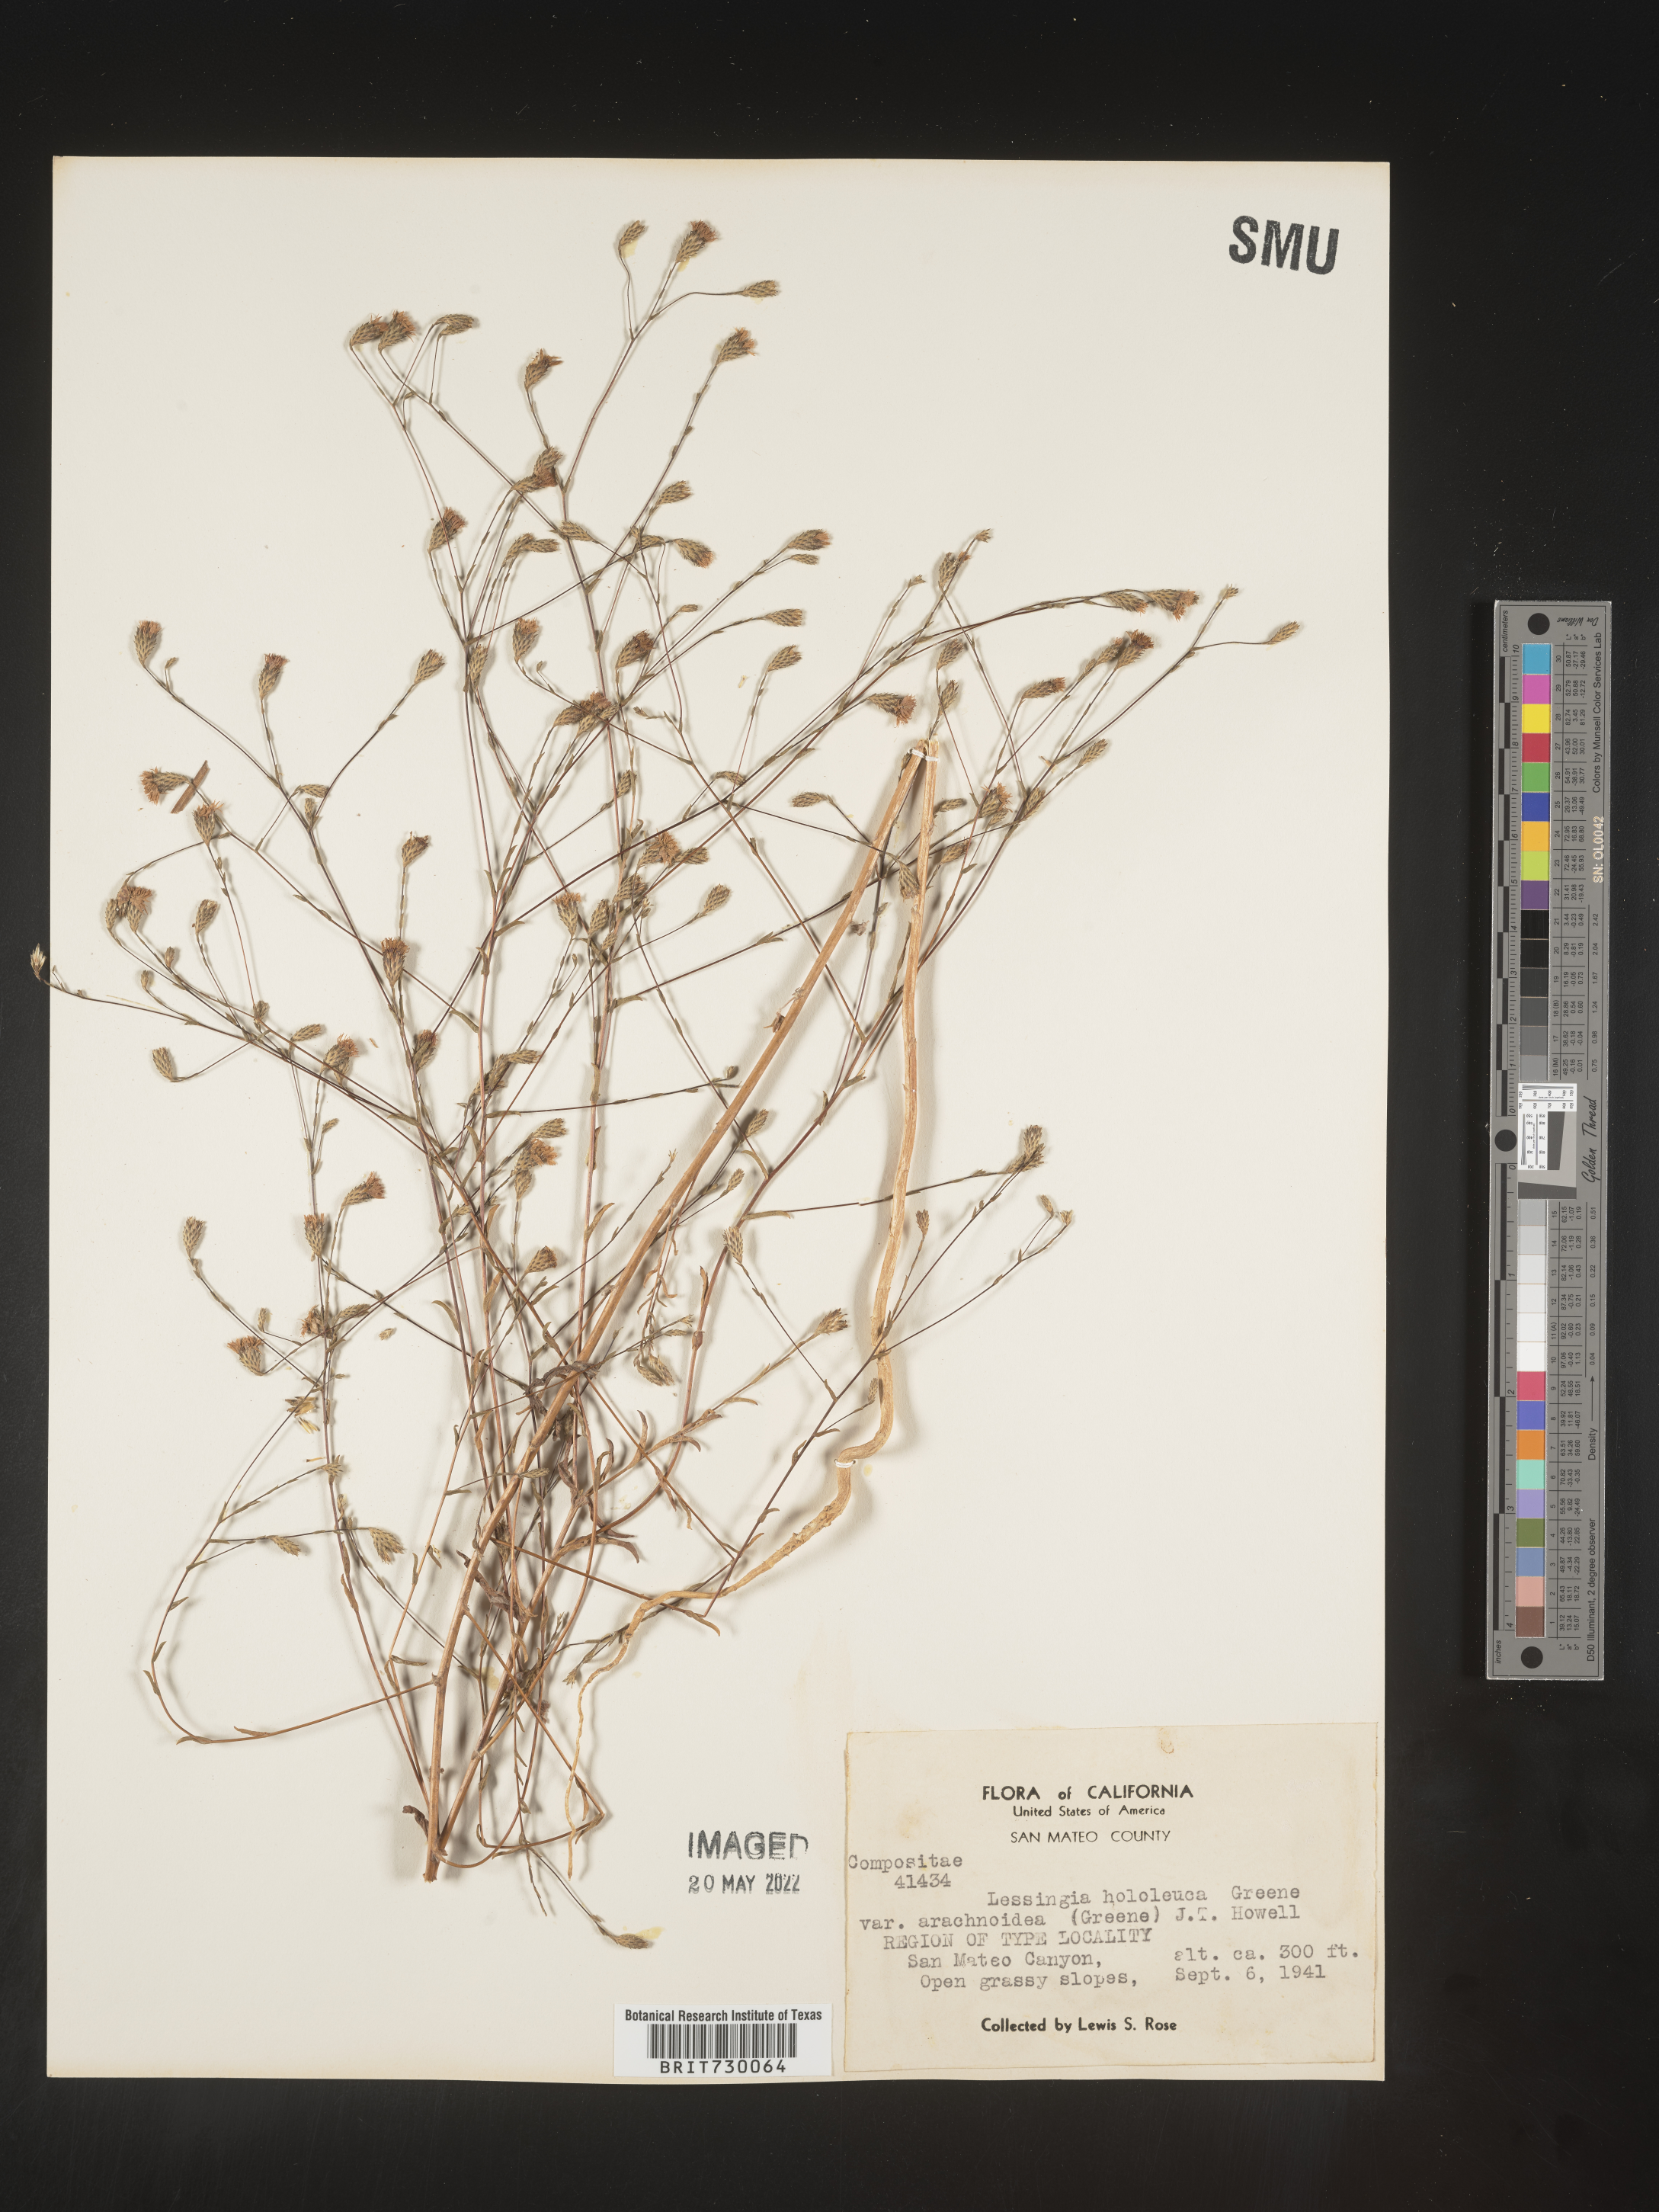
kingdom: Plantae
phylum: Tracheophyta
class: Magnoliopsida
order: Asterales
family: Asteraceae
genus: Lessingia
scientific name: Lessingia
